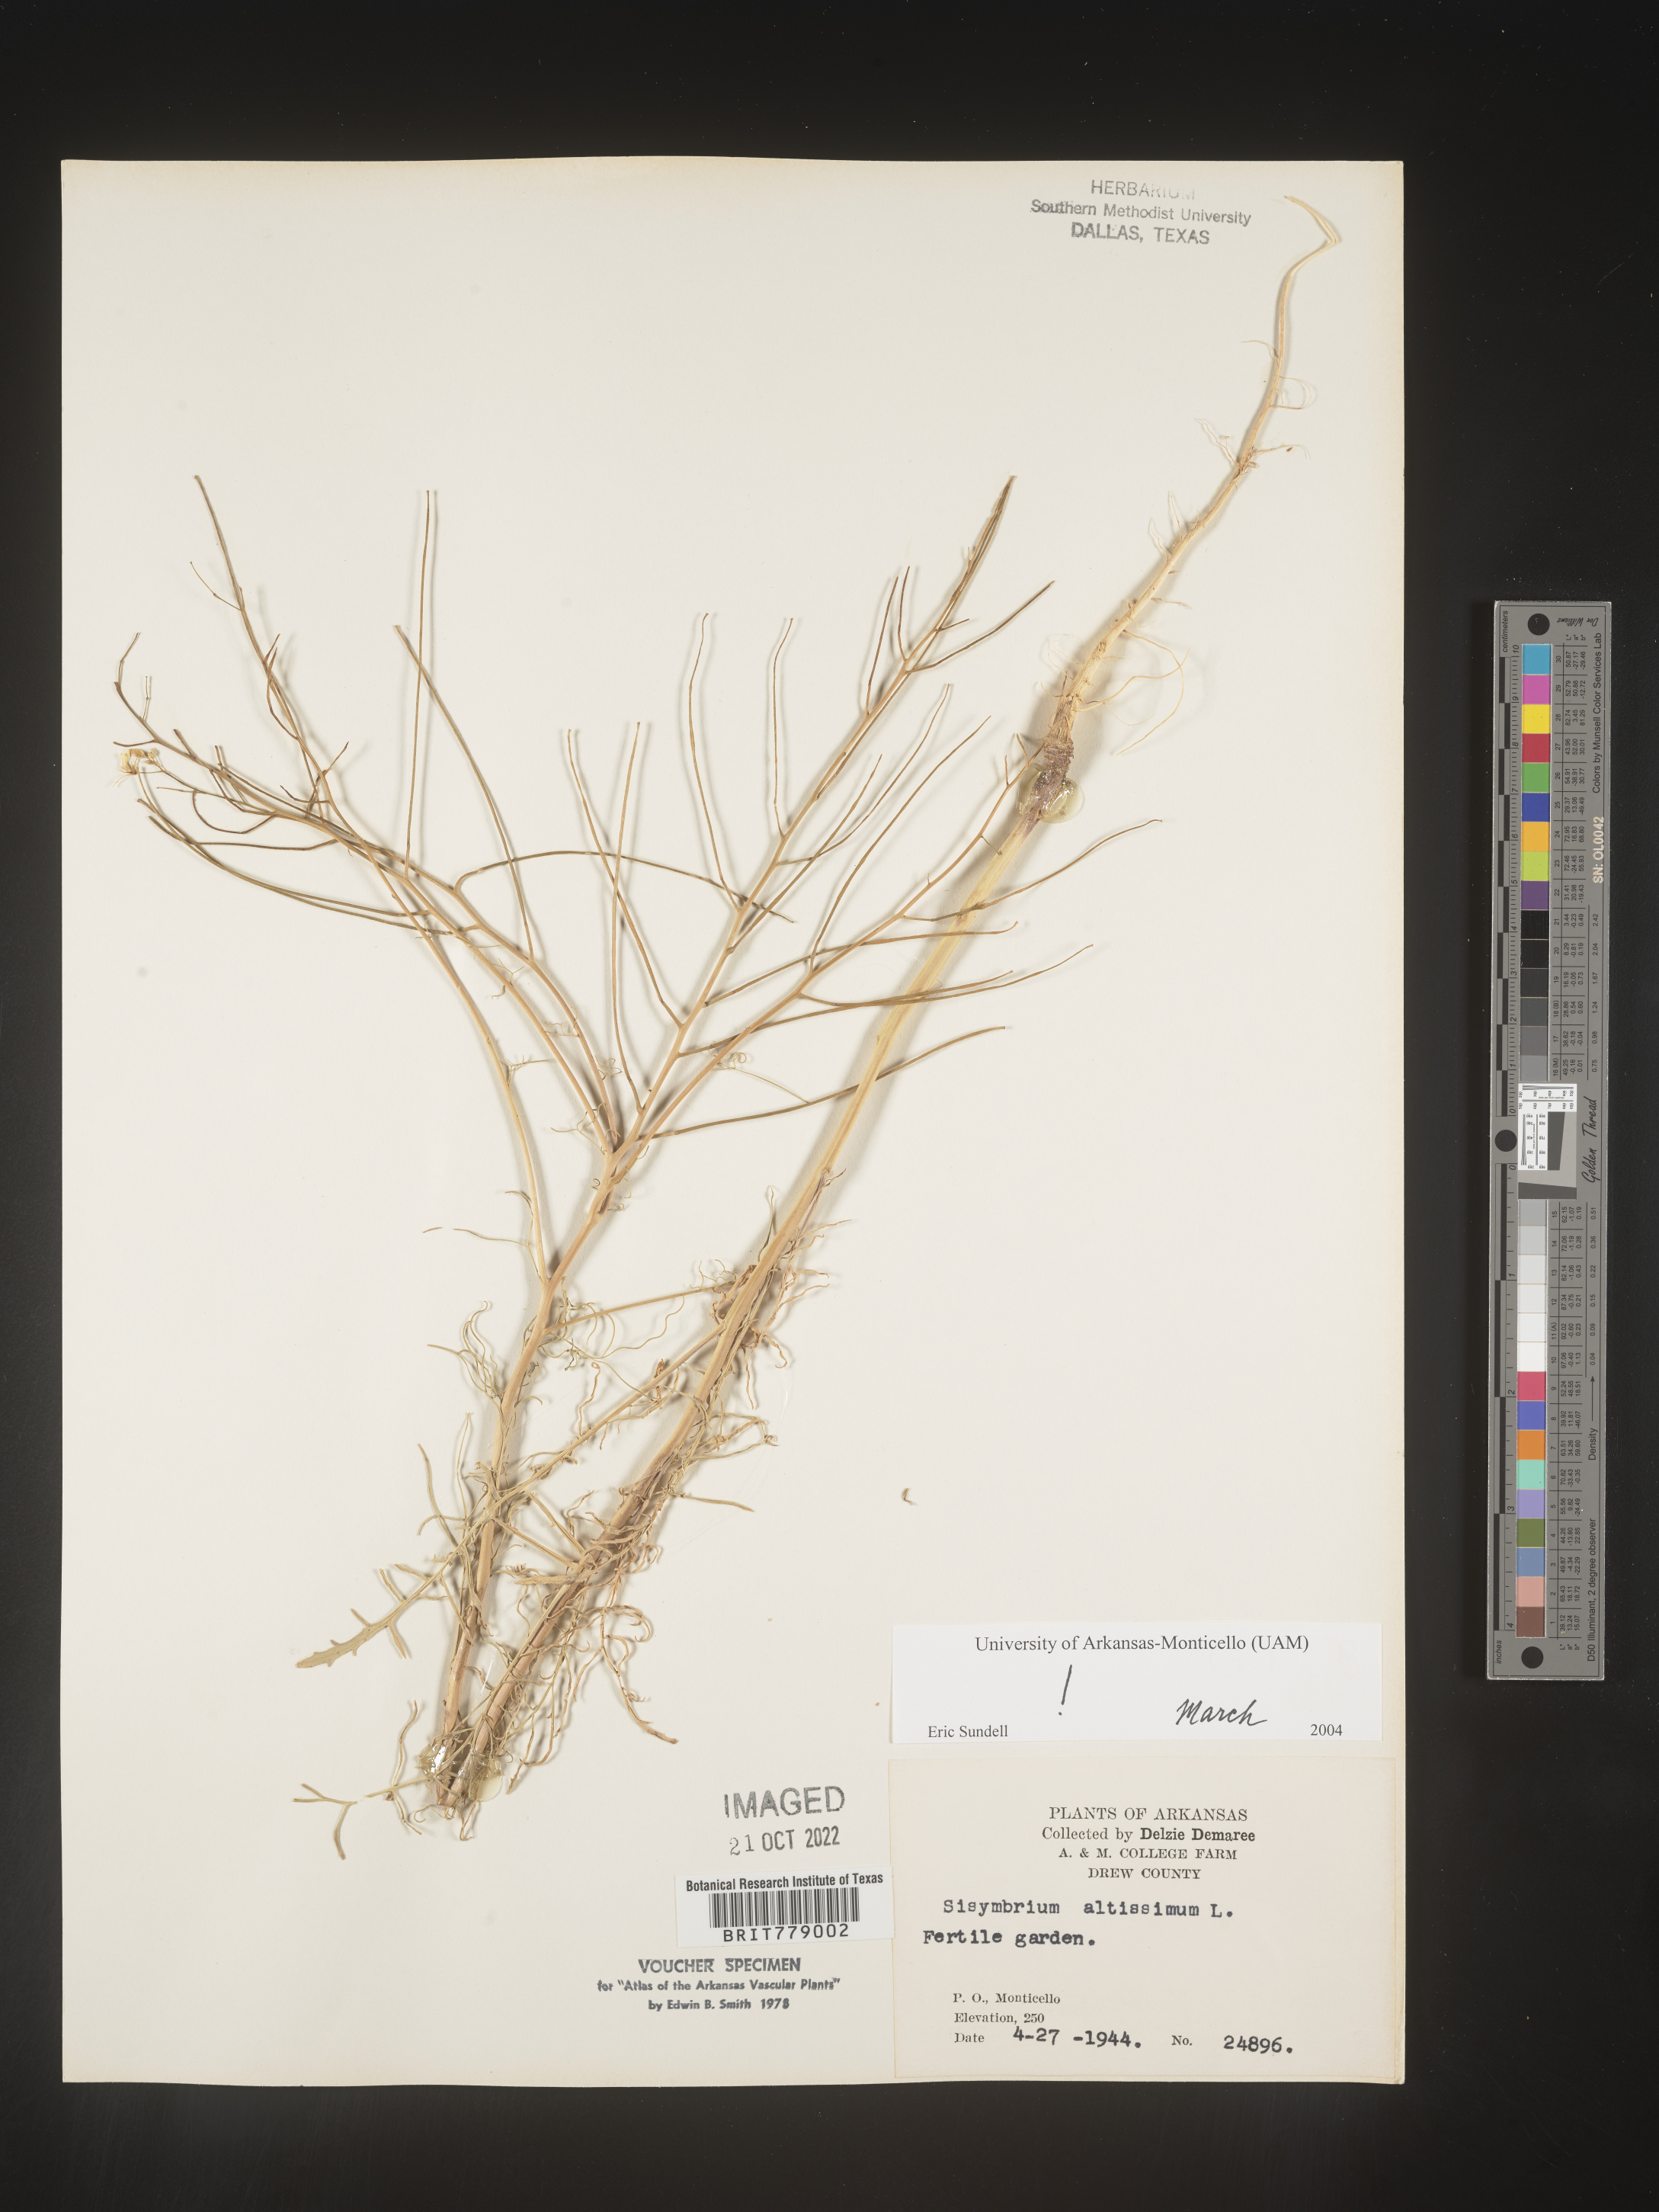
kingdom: Plantae
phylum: Tracheophyta
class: Magnoliopsida
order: Brassicales
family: Brassicaceae
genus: Sisymbrium
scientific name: Sisymbrium altissimum
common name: Tall rocket
